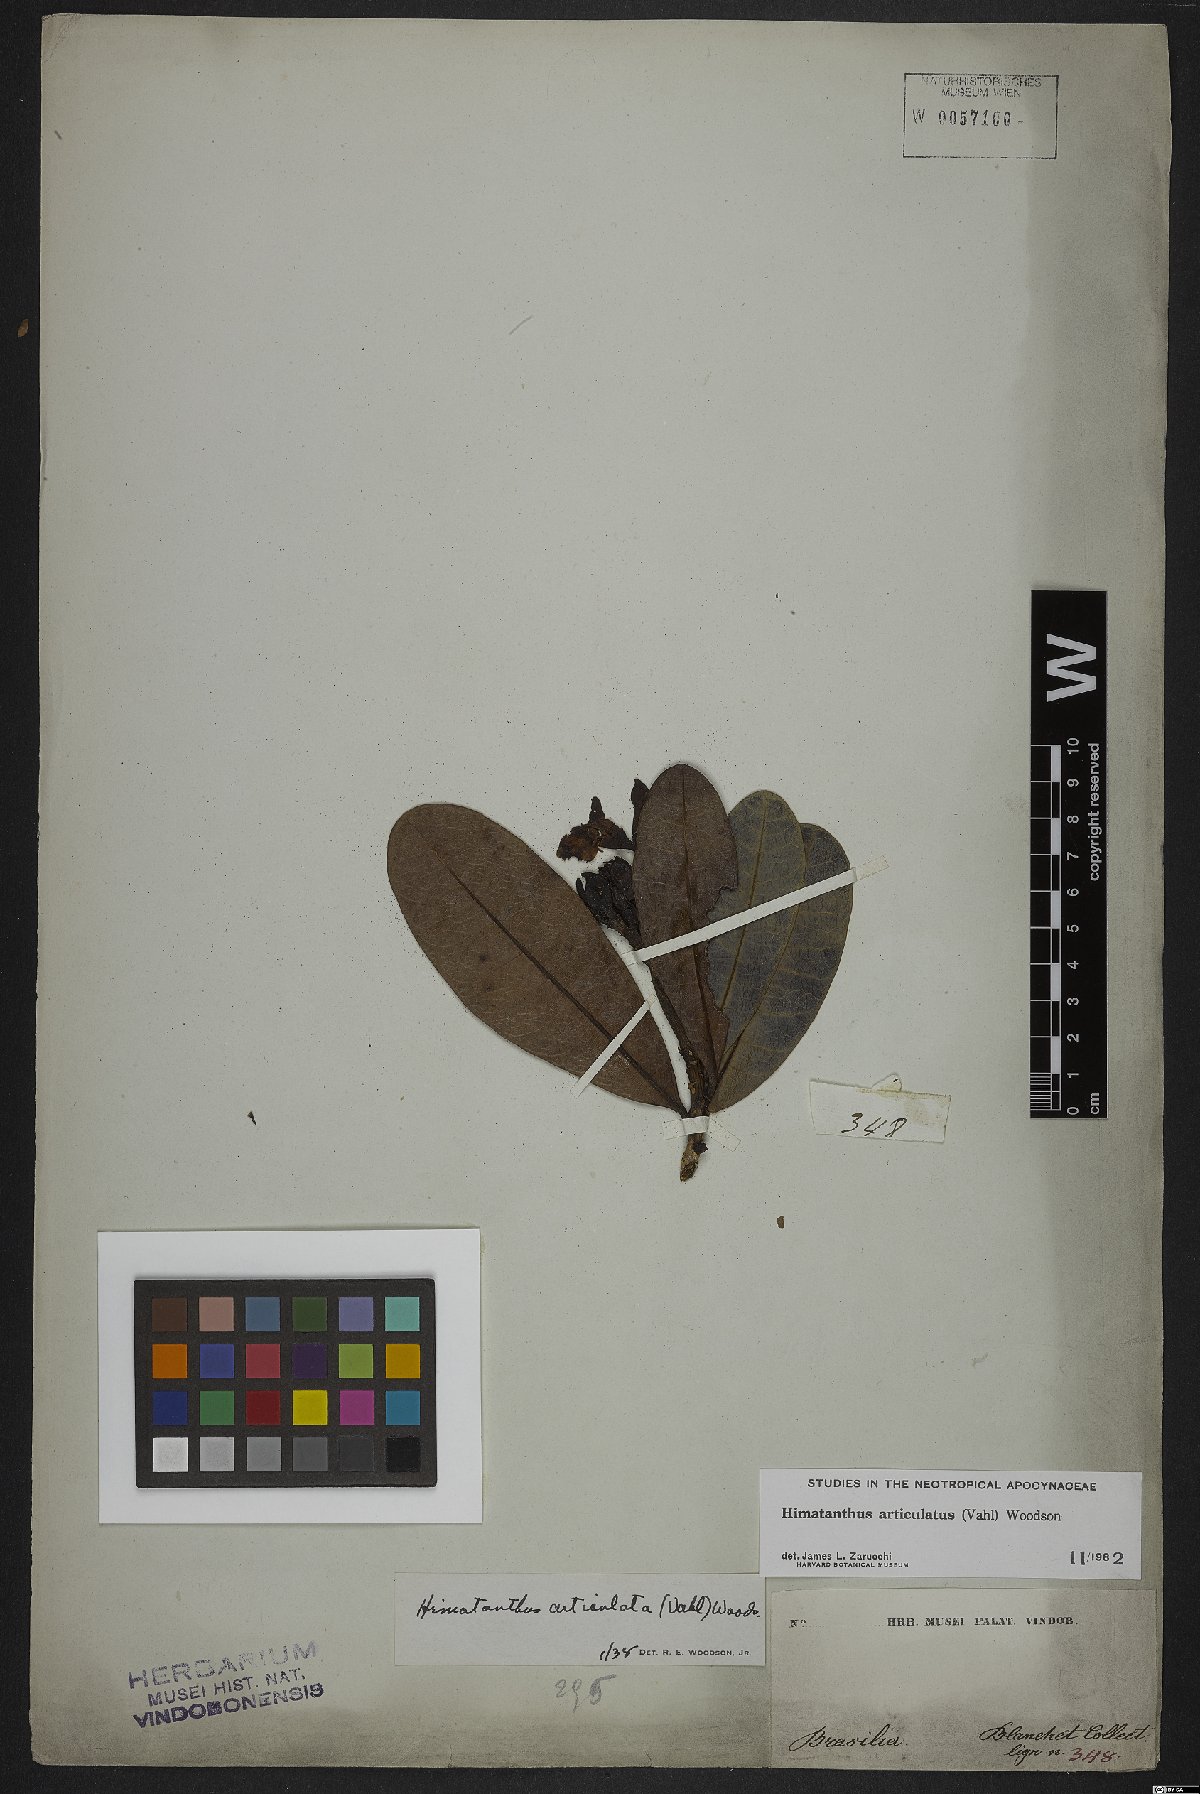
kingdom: Plantae
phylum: Tracheophyta
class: Magnoliopsida
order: Gentianales
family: Apocynaceae
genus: Himatanthus
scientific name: Himatanthus articulatus
